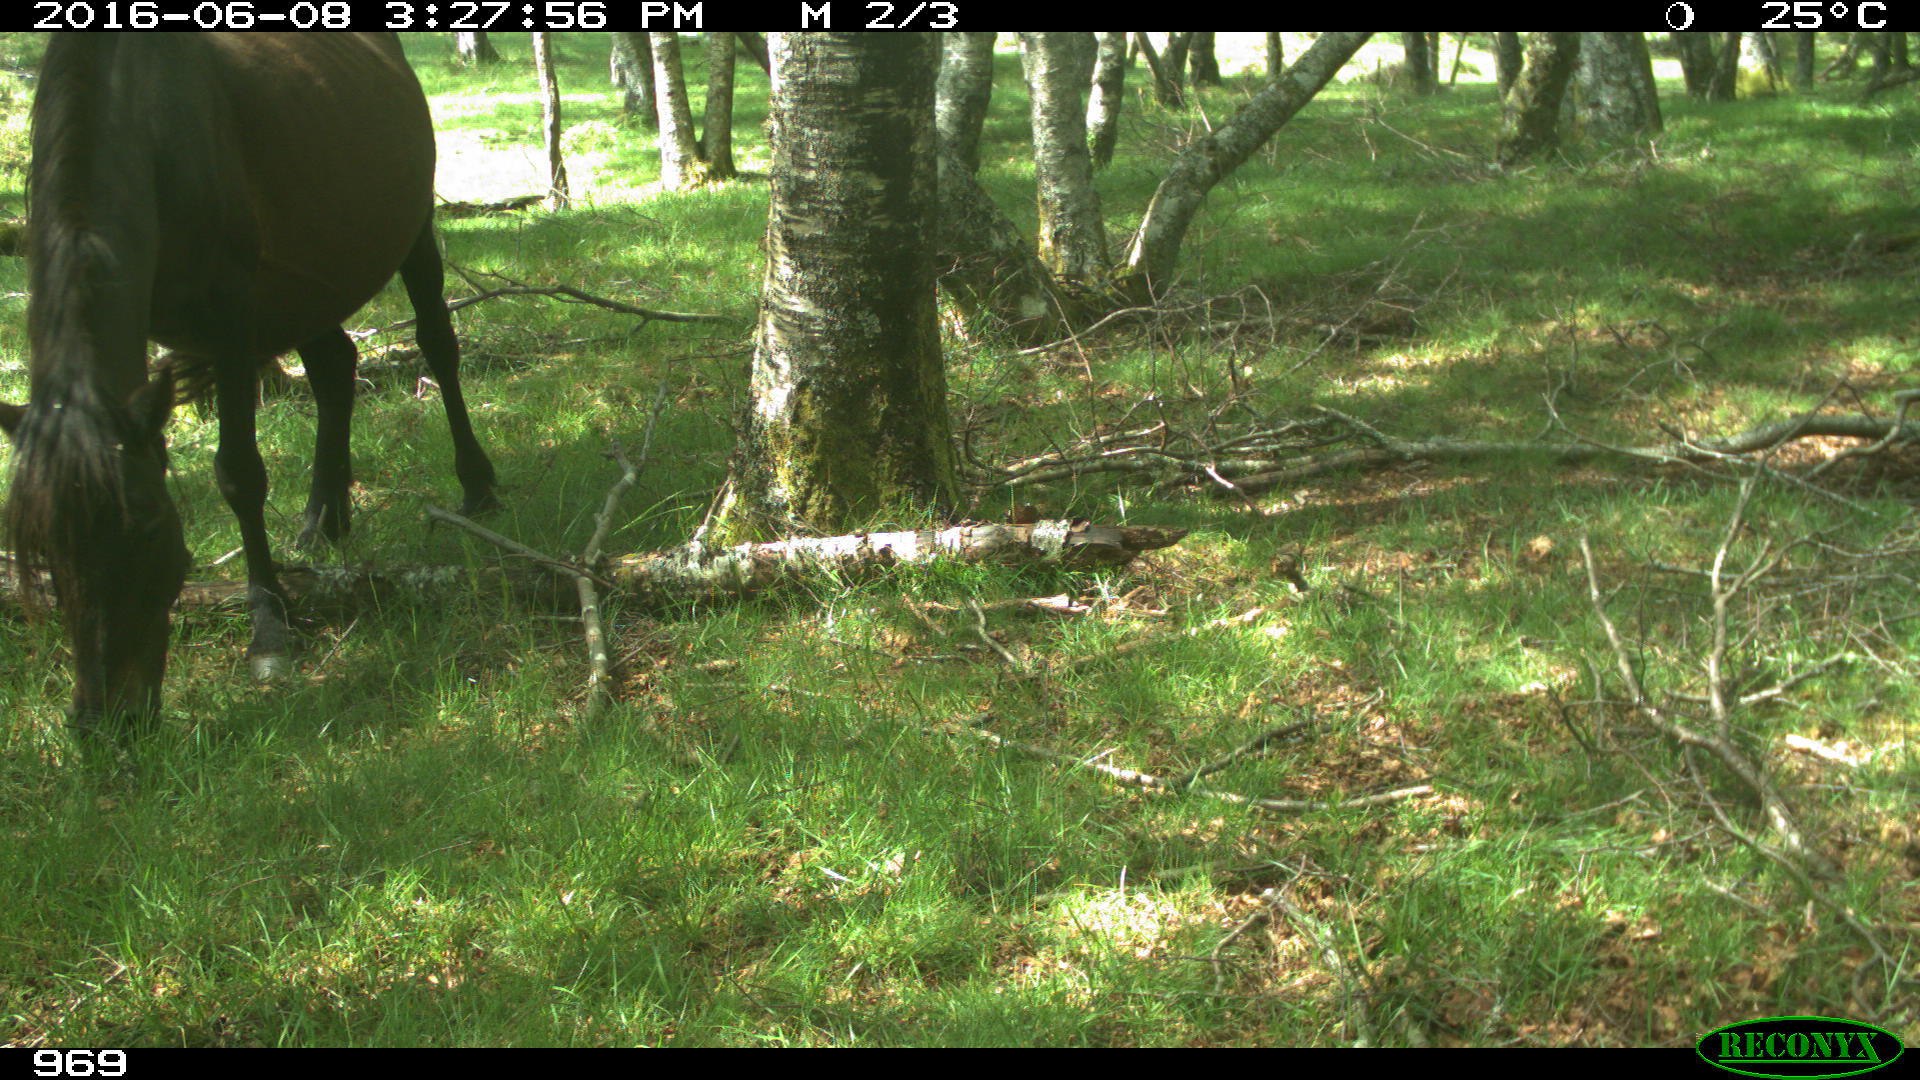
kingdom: Animalia
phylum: Chordata
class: Mammalia
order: Perissodactyla
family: Equidae
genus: Equus
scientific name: Equus caballus
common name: Horse
